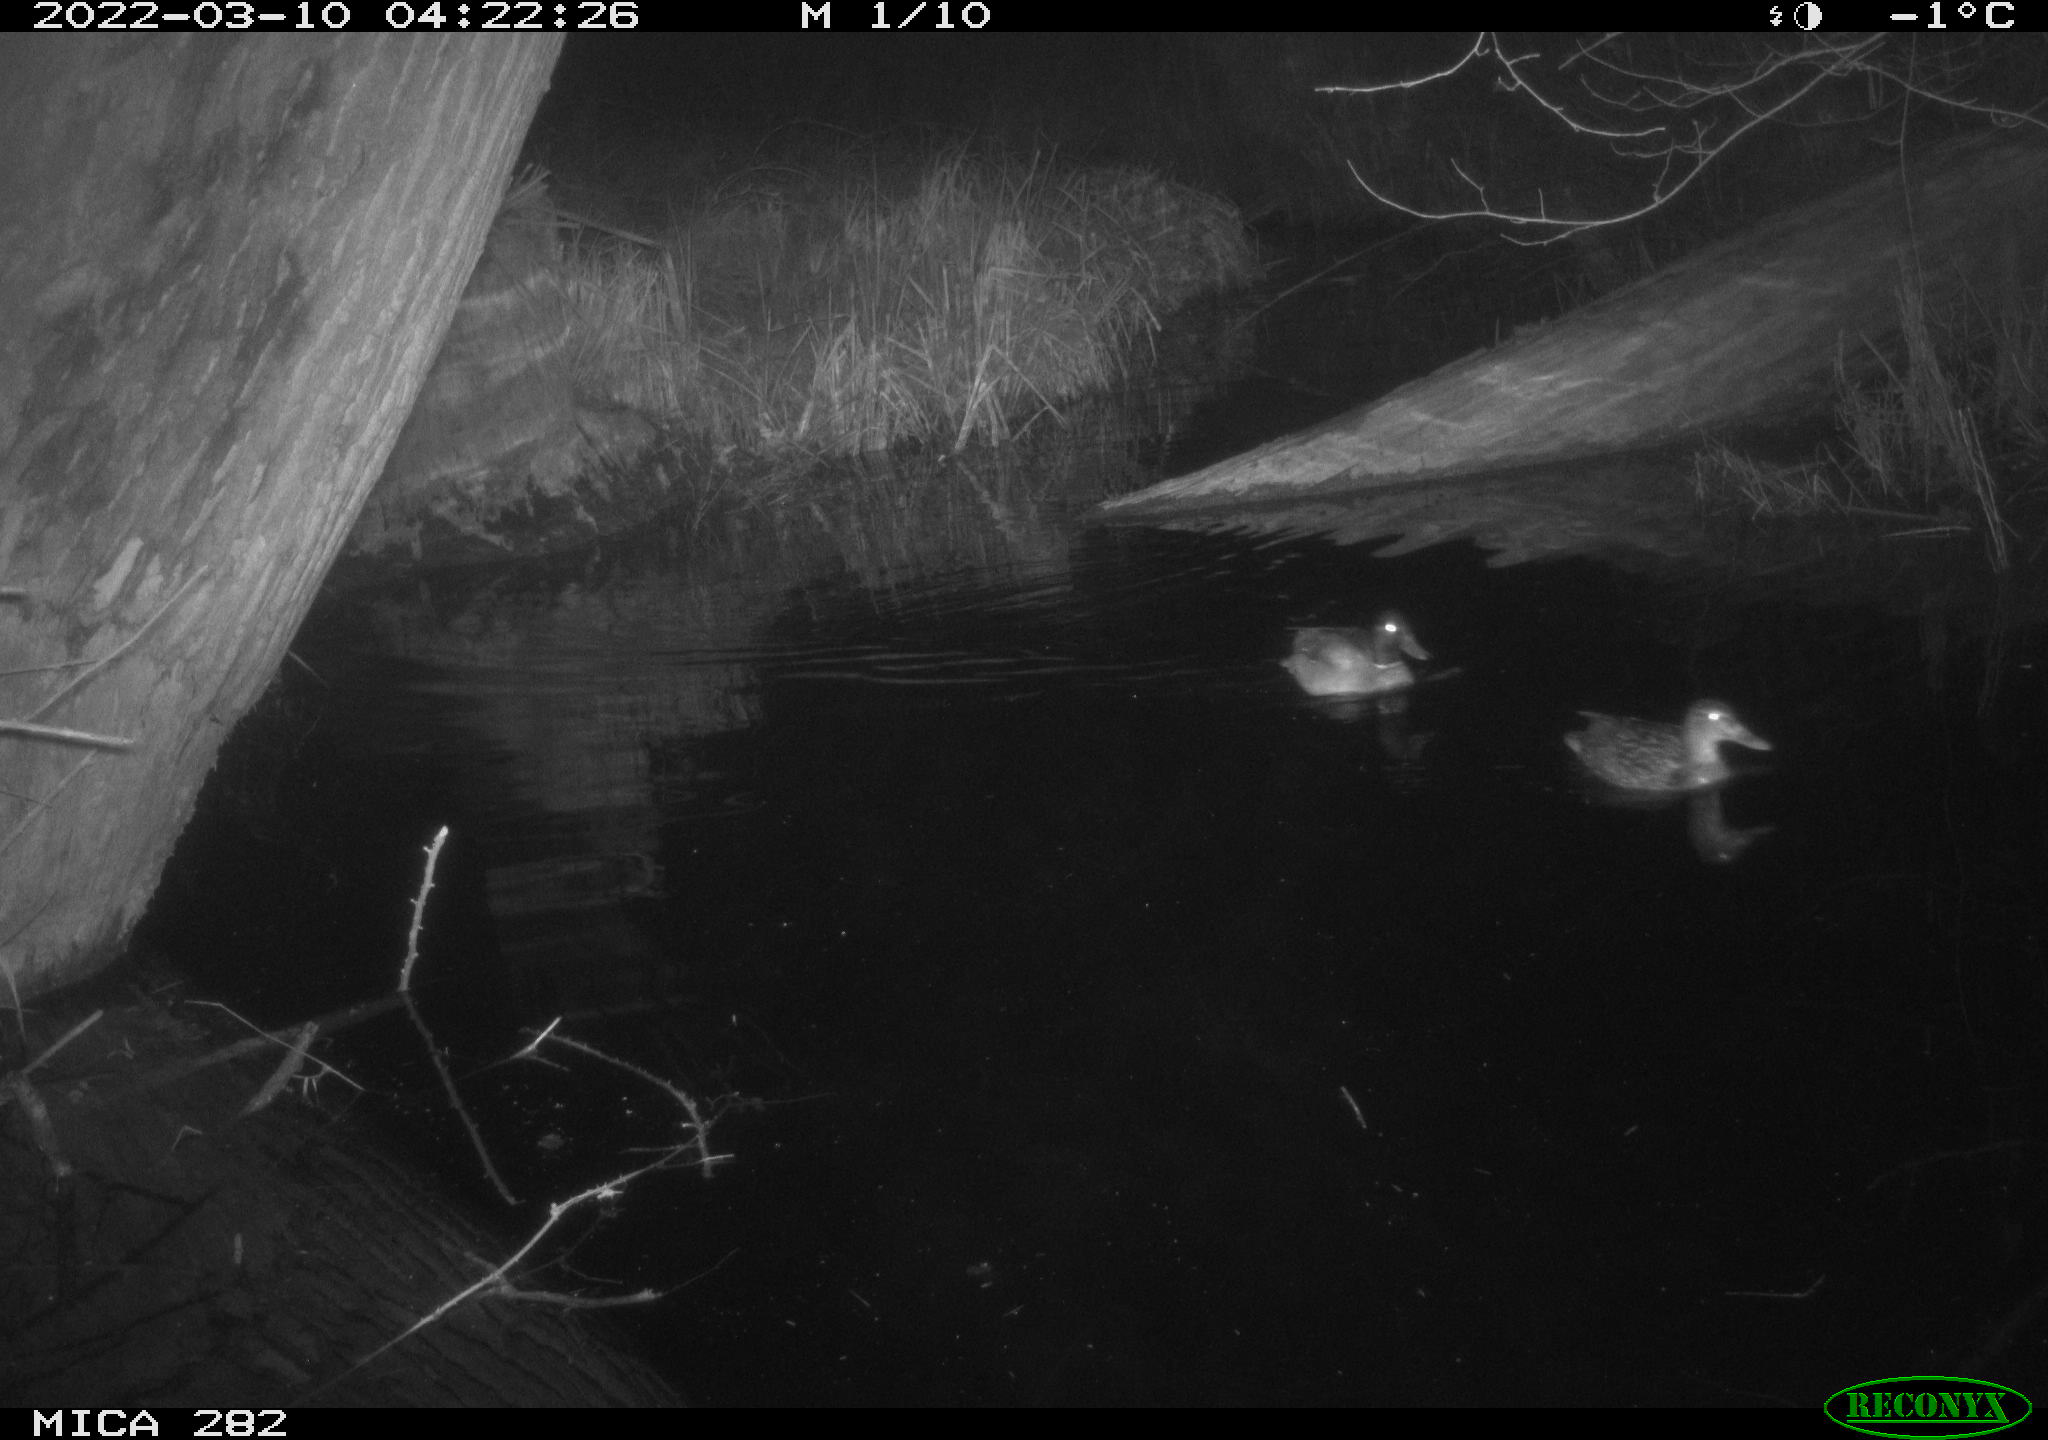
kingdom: Animalia
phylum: Chordata
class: Aves
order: Anseriformes
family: Anatidae
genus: Anas
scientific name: Anas platyrhynchos
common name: Mallard
